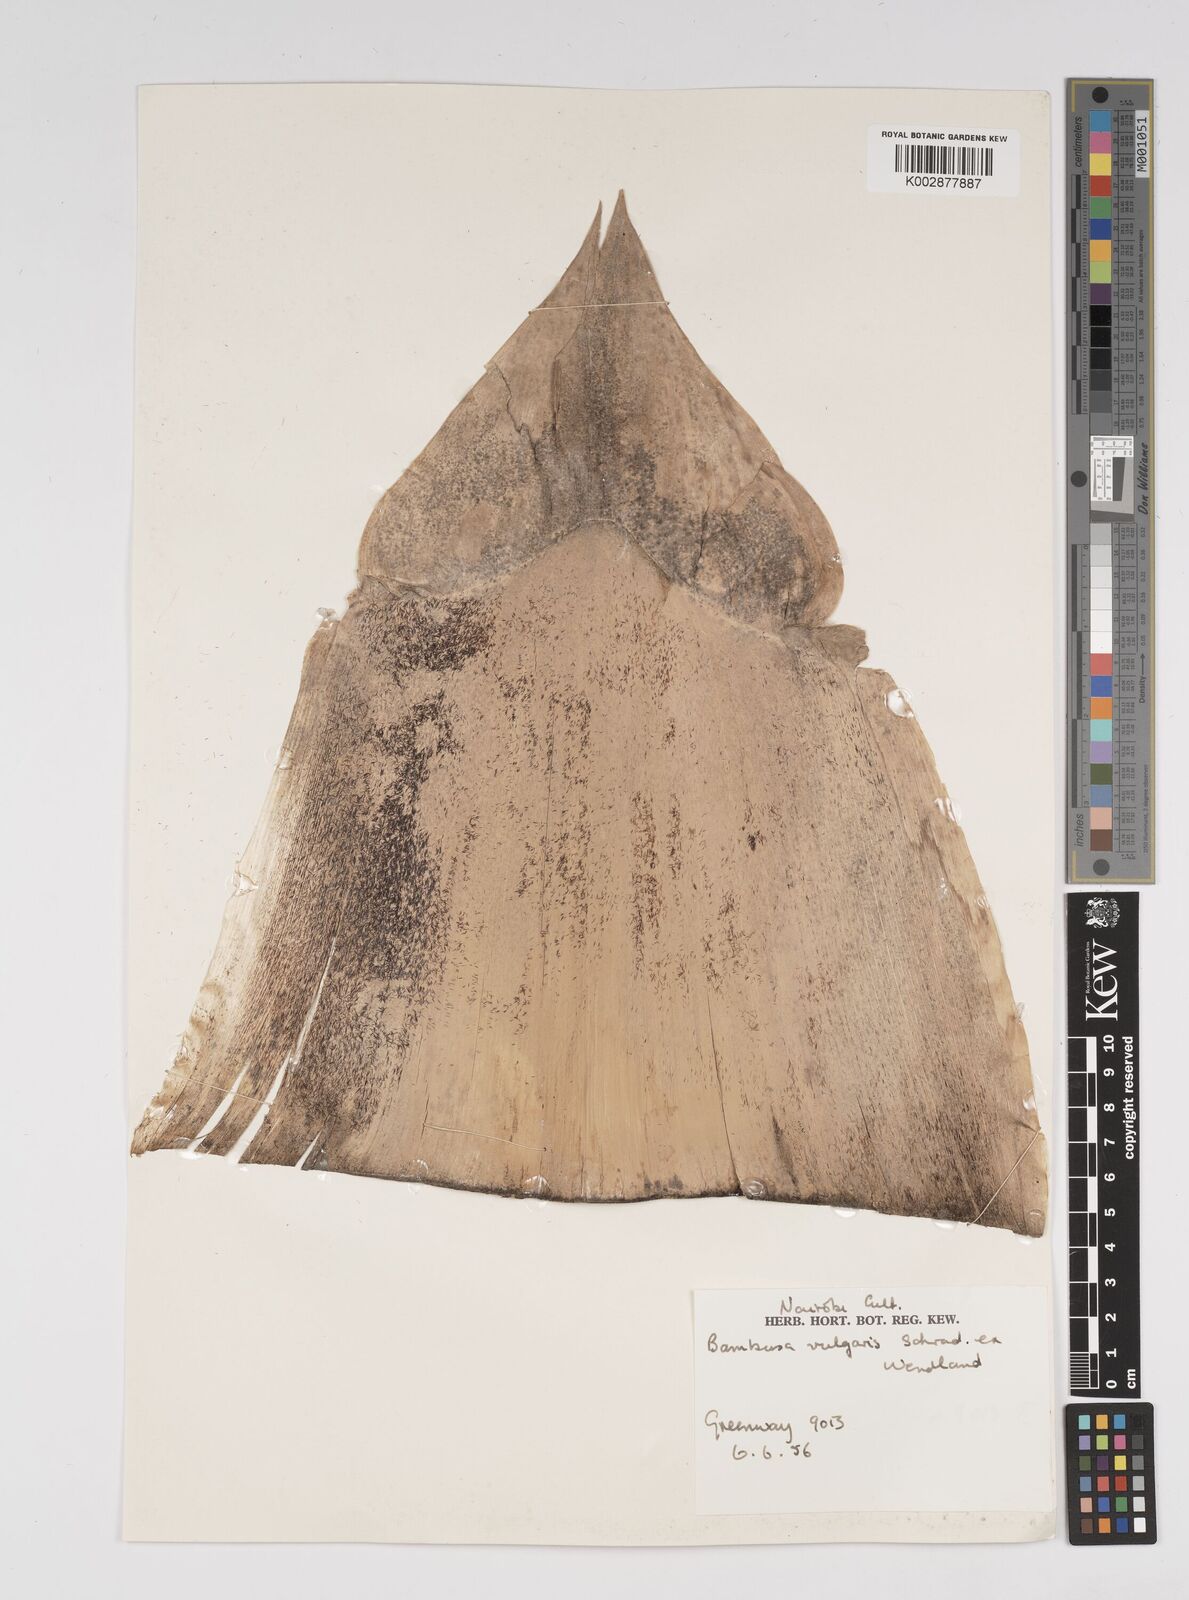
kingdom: Plantae
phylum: Tracheophyta
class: Liliopsida
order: Poales
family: Poaceae
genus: Bambusa
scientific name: Bambusa balcooa
